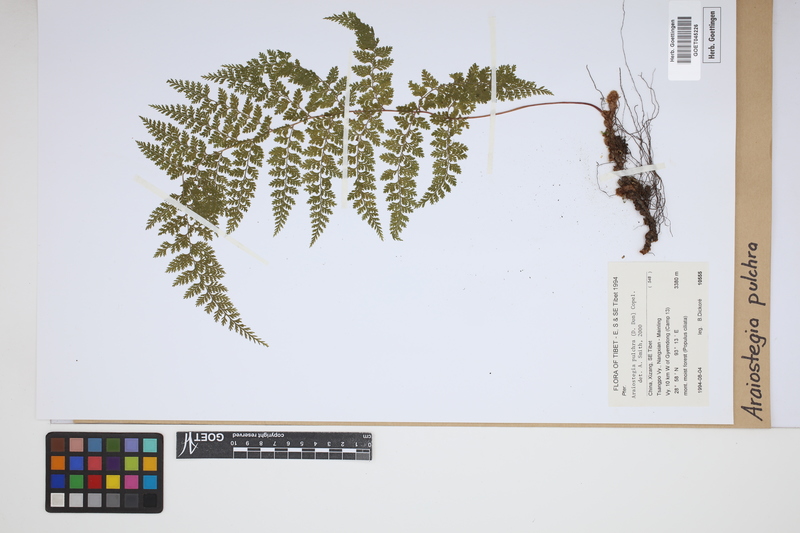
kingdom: Plantae
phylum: Tracheophyta
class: Polypodiopsida
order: Polypodiales
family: Davalliaceae
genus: Davallodes
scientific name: Davallodes pulchra
